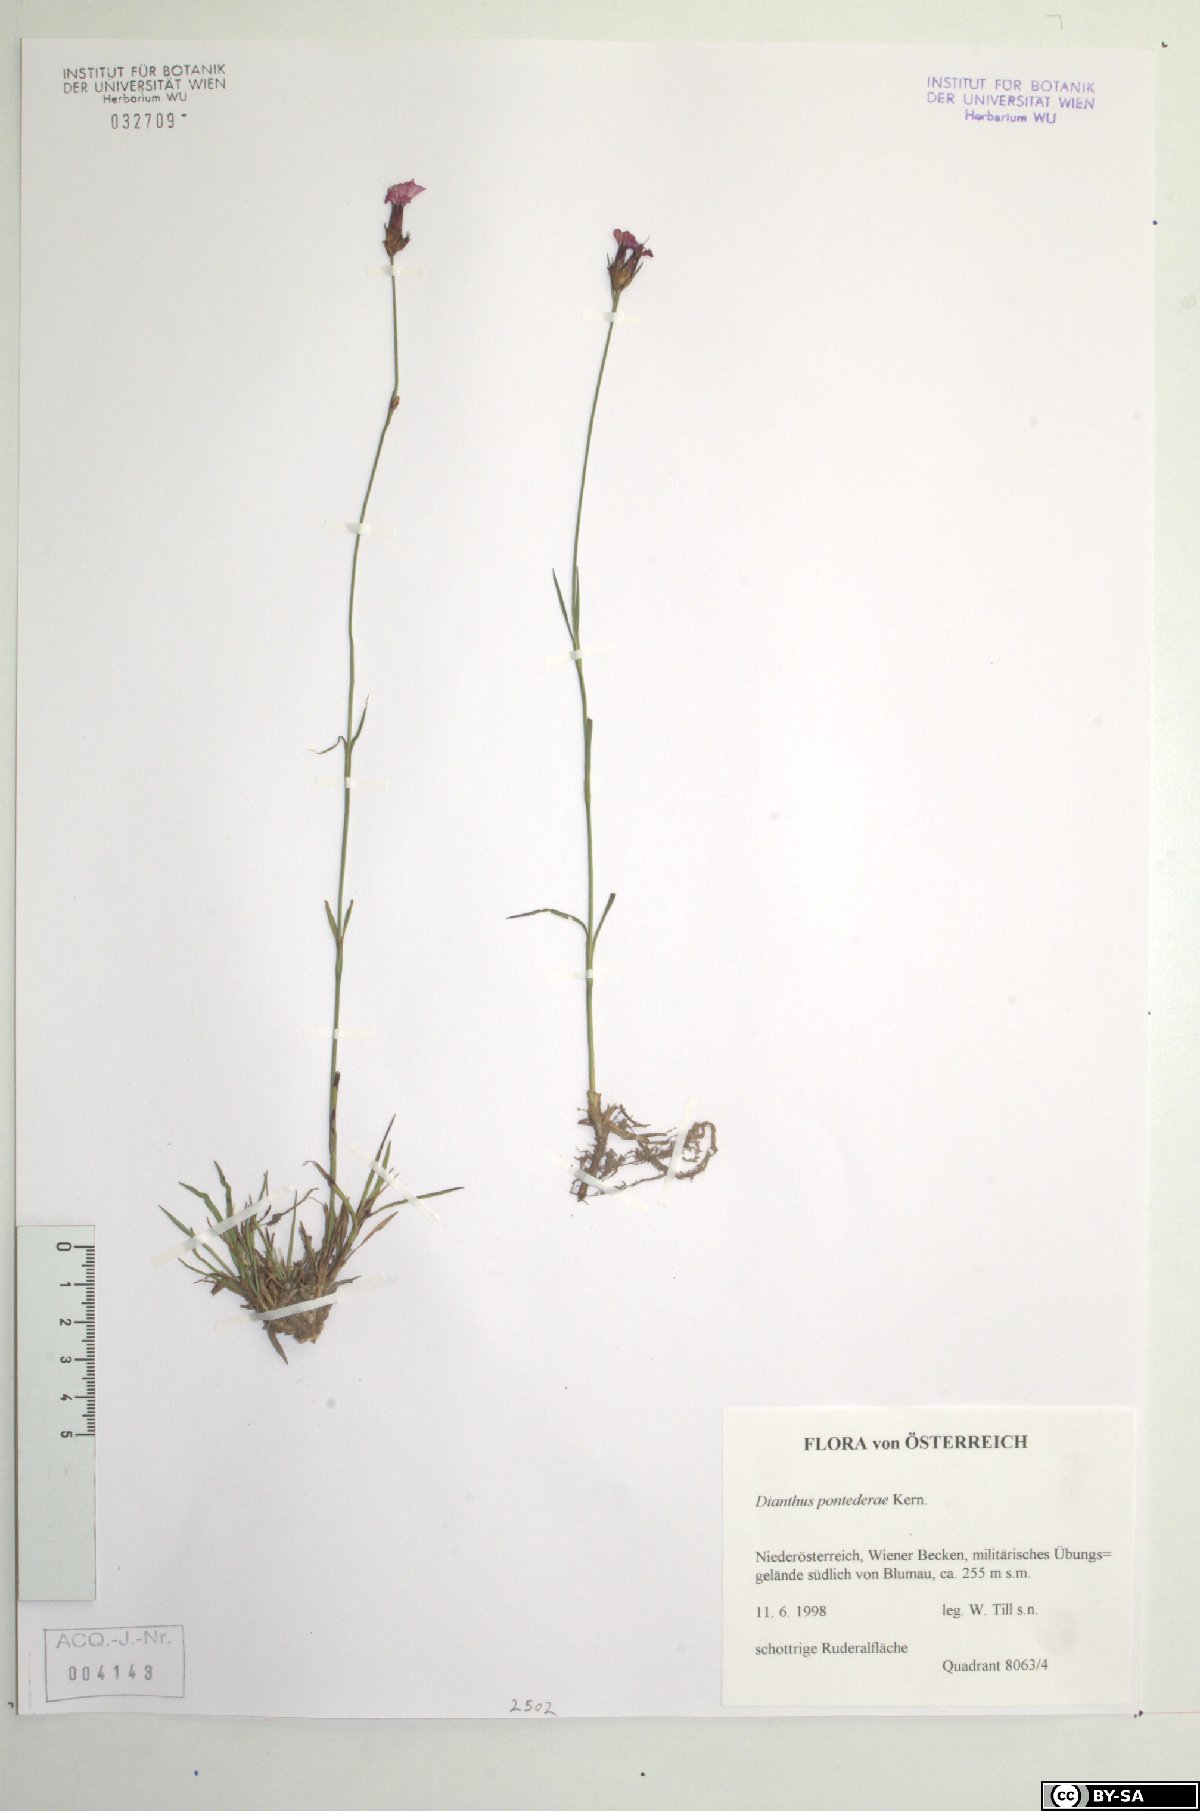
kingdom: Plantae
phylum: Tracheophyta
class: Magnoliopsida
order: Caryophyllales
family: Caryophyllaceae
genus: Dianthus
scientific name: Dianthus pontederae
